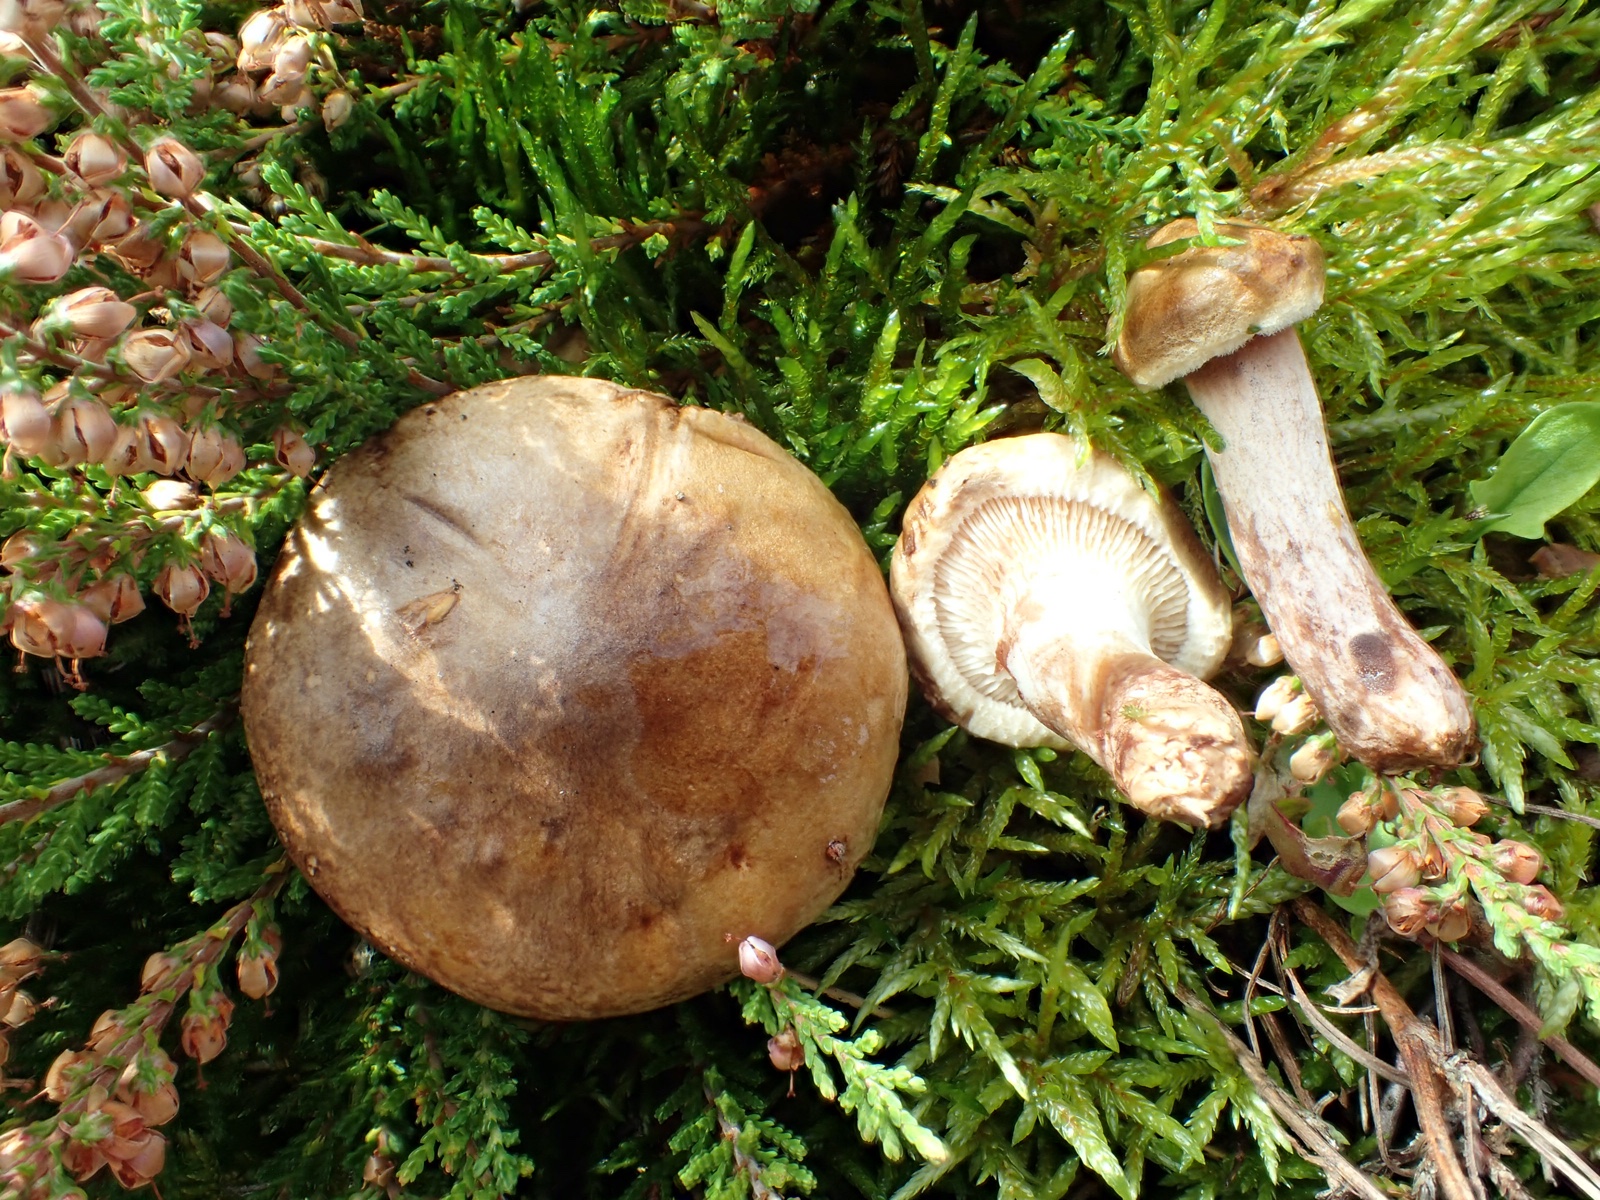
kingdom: Fungi
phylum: Basidiomycota
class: Agaricomycetes
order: Boletales
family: Paxillaceae
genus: Paxillus
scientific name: Paxillus involutus
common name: almindelig netbladhat
